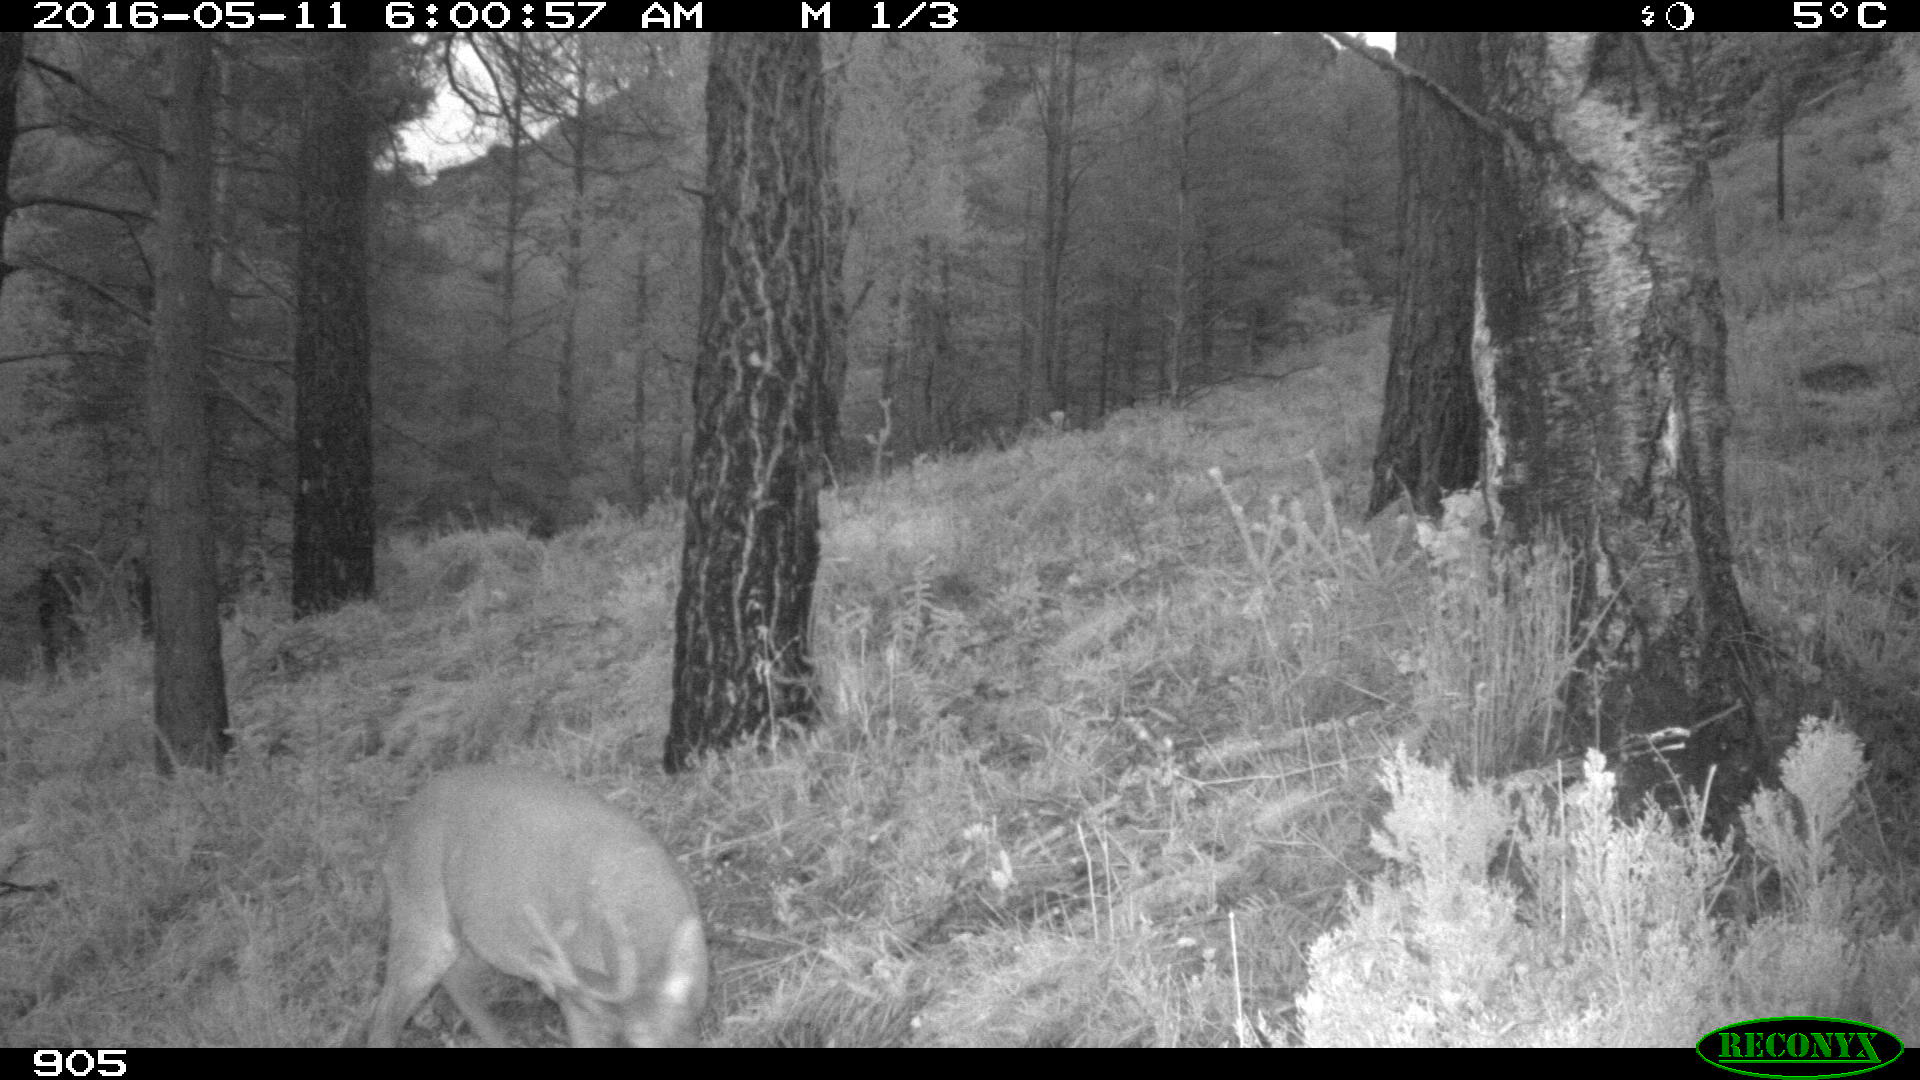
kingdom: Animalia
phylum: Chordata
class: Mammalia
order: Artiodactyla
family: Cervidae
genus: Capreolus
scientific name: Capreolus capreolus
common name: Western roe deer
